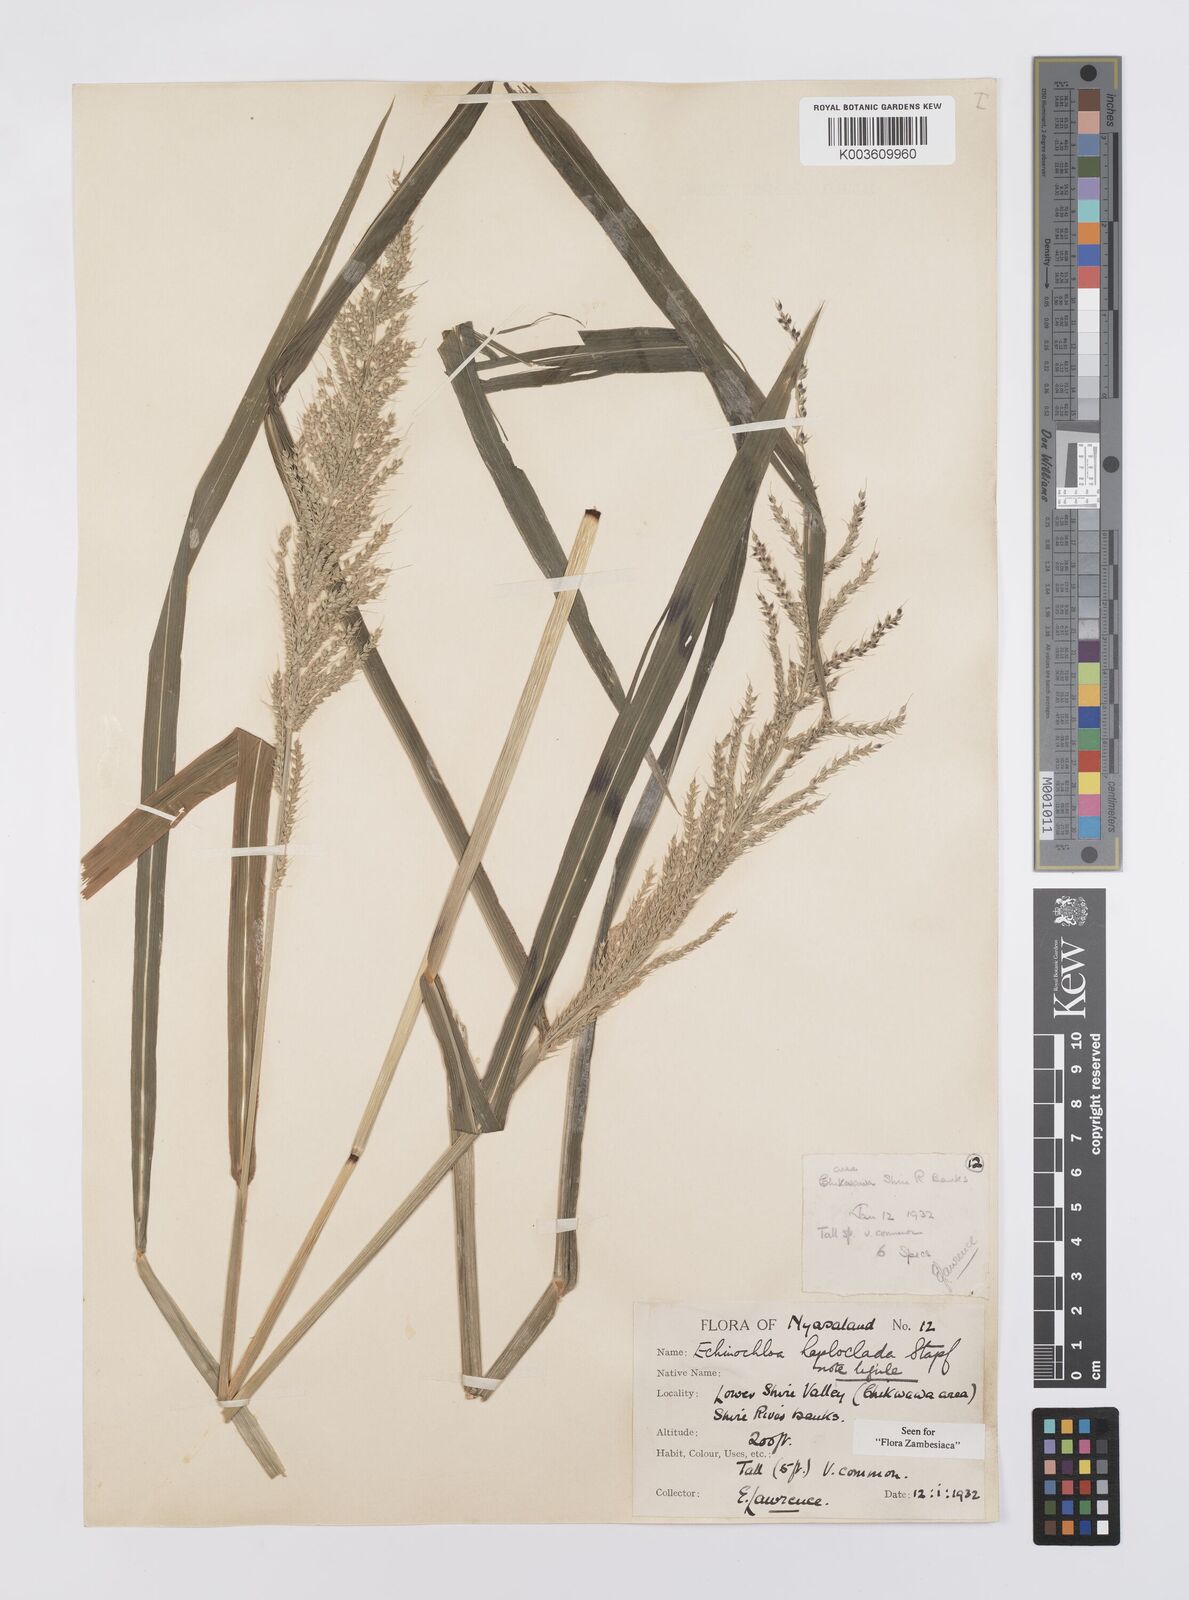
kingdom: Plantae
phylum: Tracheophyta
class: Liliopsida
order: Poales
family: Poaceae
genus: Echinochloa
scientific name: Echinochloa haploclada
